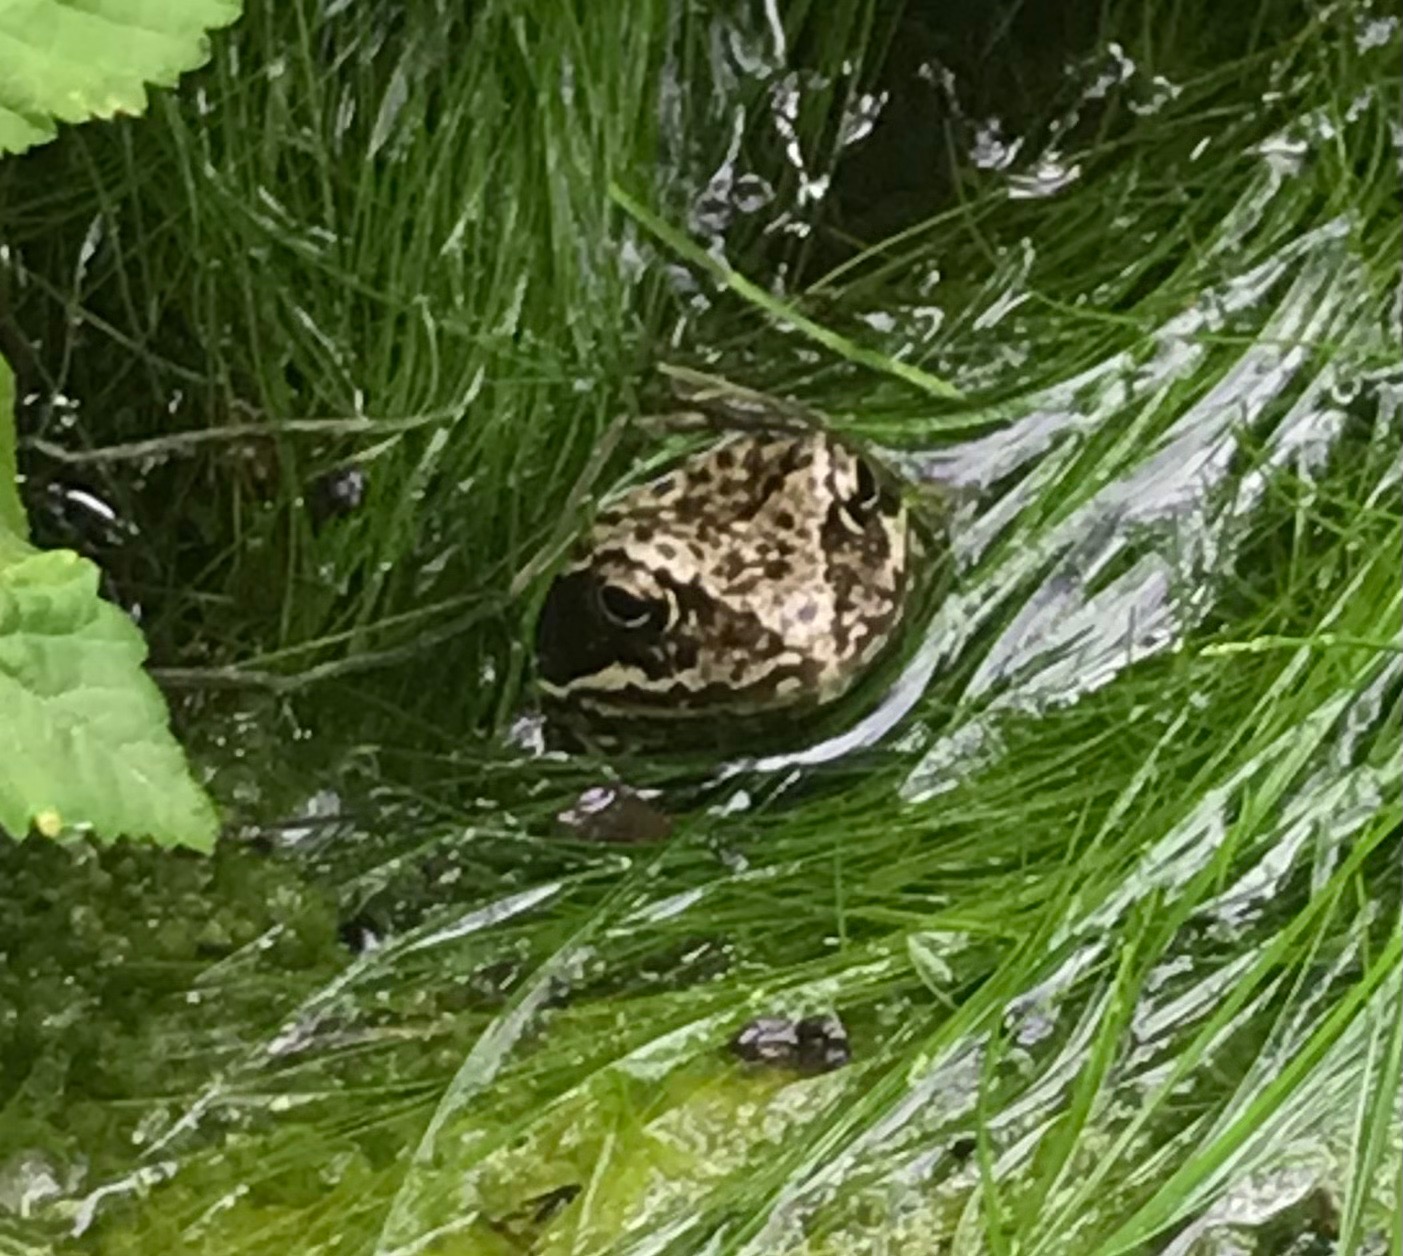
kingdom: Animalia
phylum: Chordata
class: Amphibia
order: Anura
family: Ranidae
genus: Rana
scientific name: Rana temporaria
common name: Butsnudet frø
